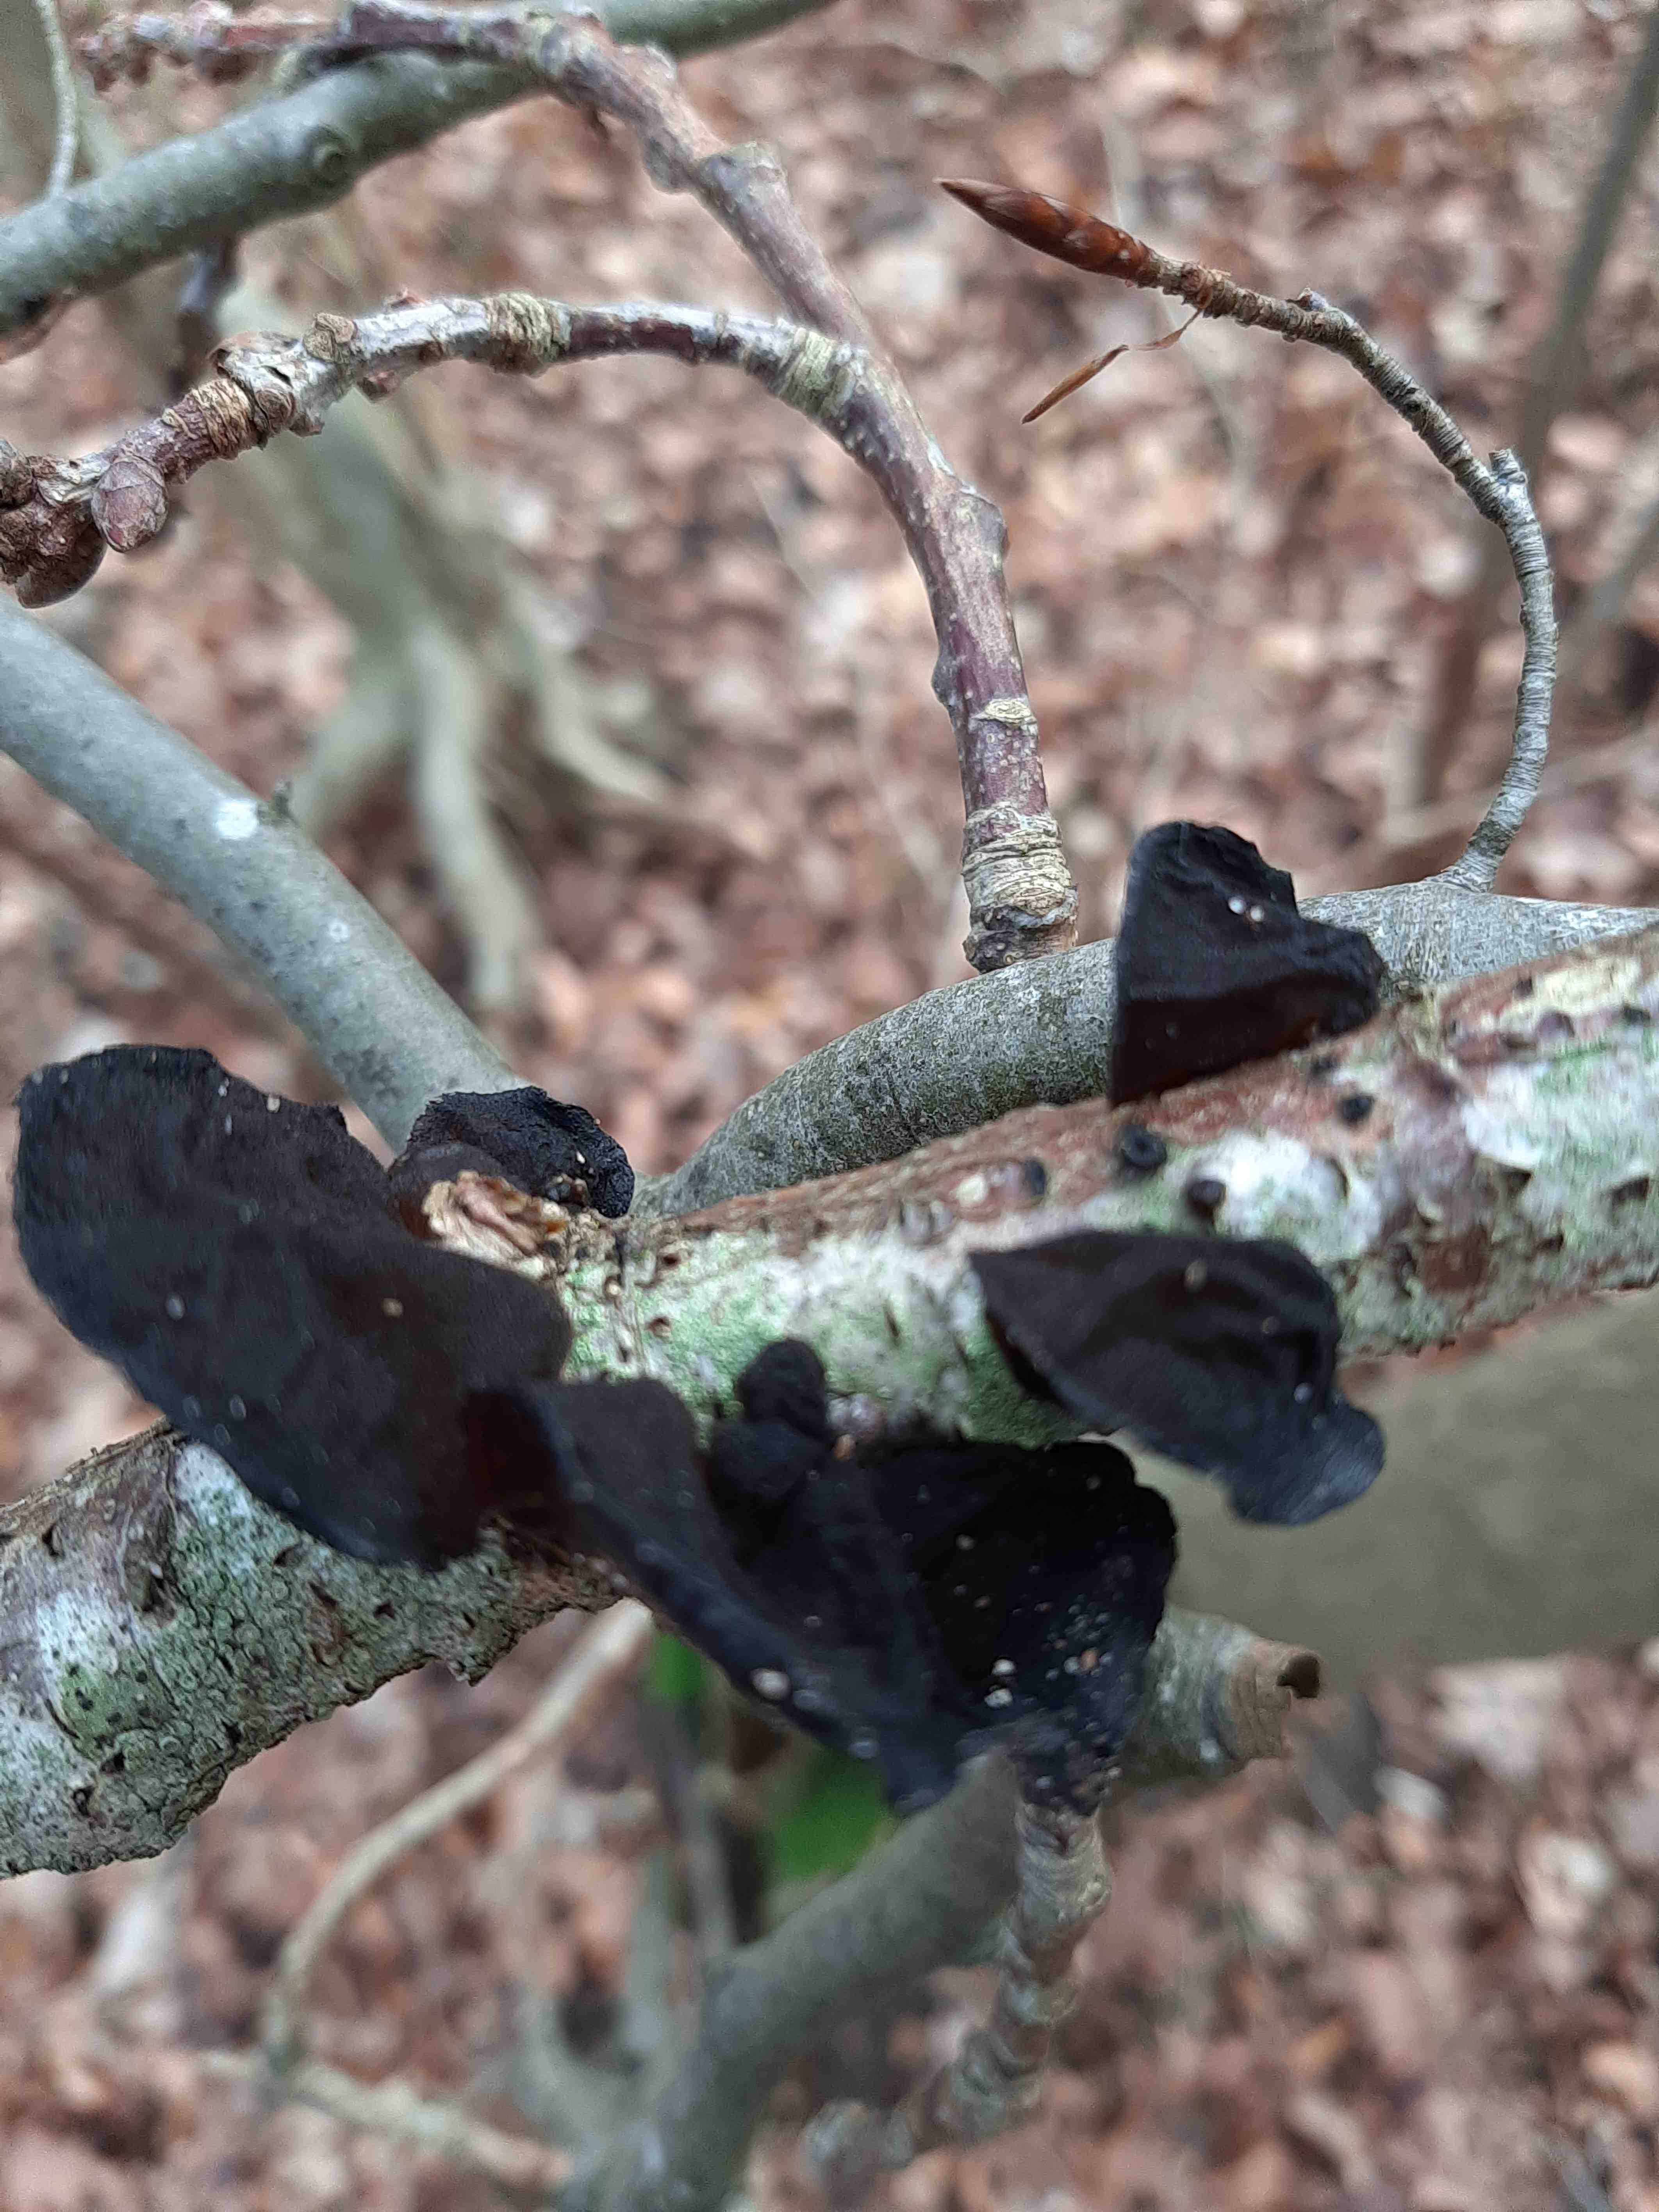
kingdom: Fungi
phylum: Basidiomycota
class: Agaricomycetes
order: Auriculariales
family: Auriculariaceae
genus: Exidia
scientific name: Exidia nigricans
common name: almindelig bævretop
